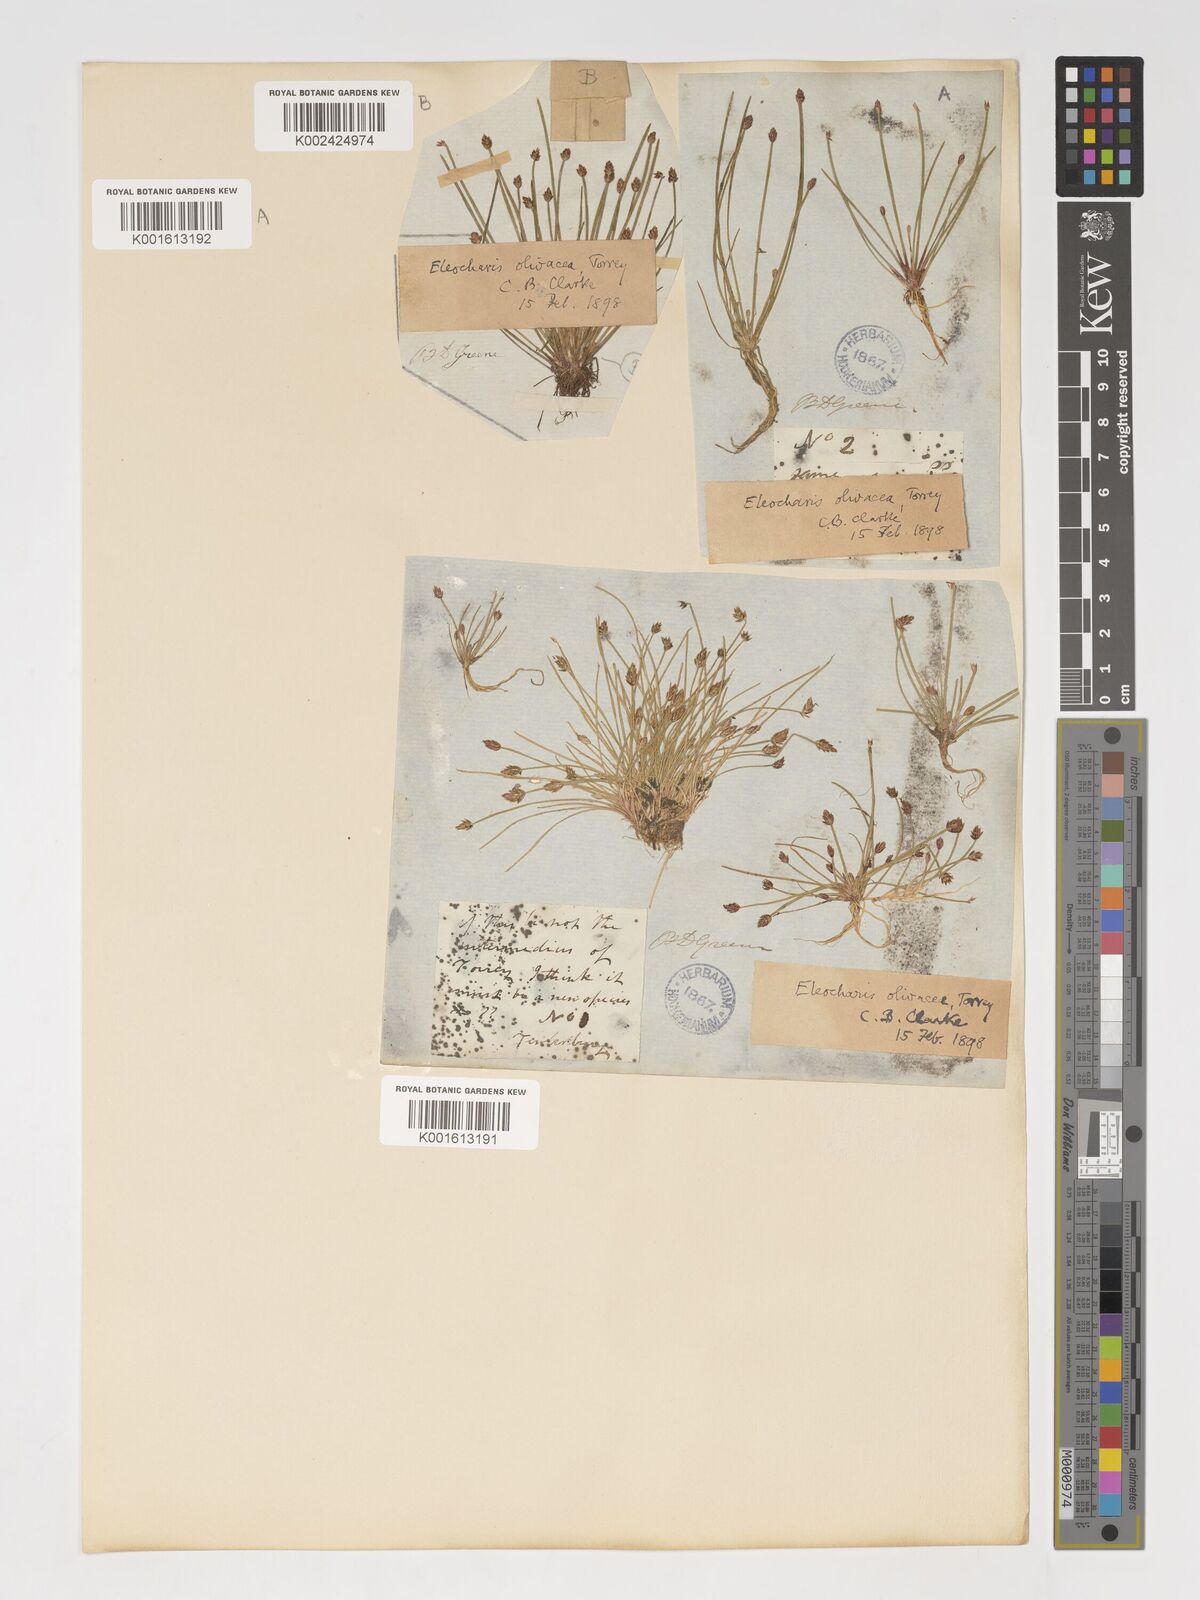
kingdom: Plantae
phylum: Tracheophyta
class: Liliopsida
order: Poales
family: Cyperaceae
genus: Eleocharis
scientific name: Eleocharis flavescens
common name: Yellow spikerush
